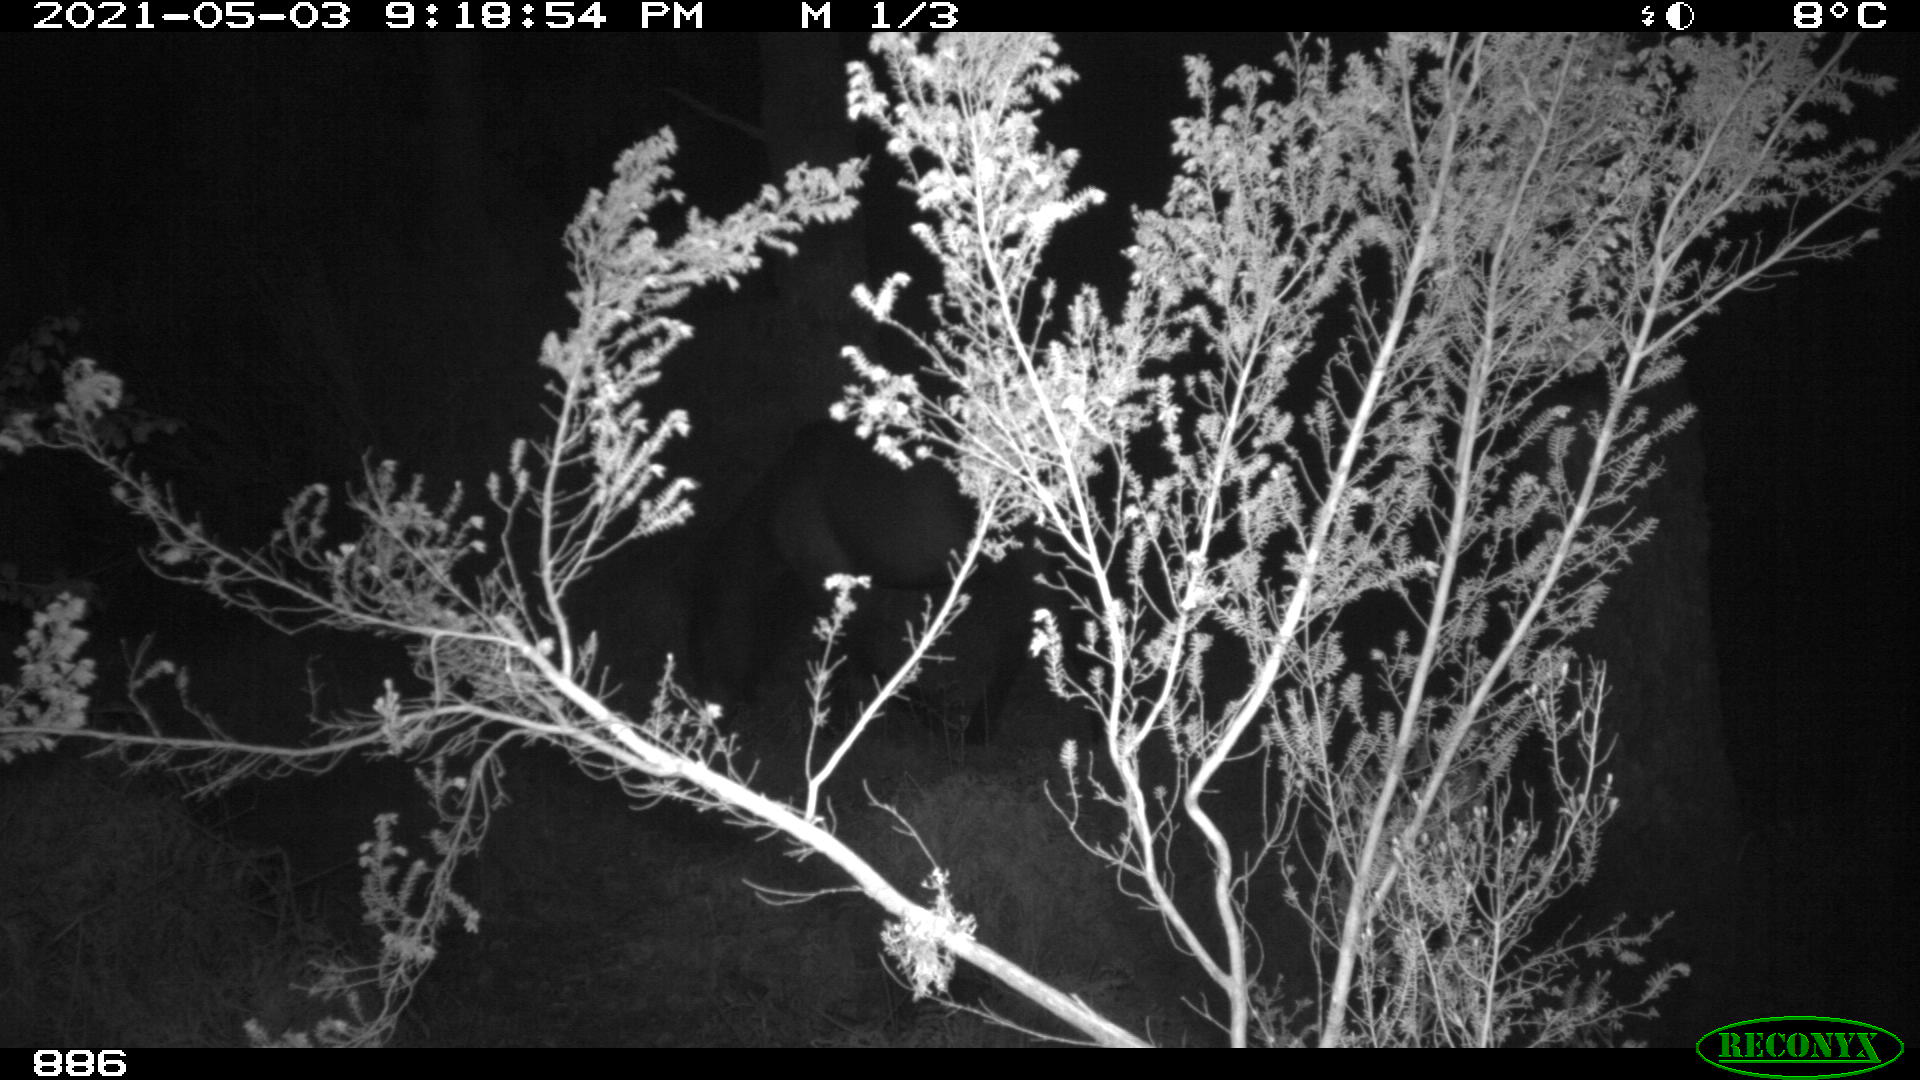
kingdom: Animalia
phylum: Chordata
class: Mammalia
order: Perissodactyla
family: Equidae
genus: Equus
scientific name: Equus caballus
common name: Horse
